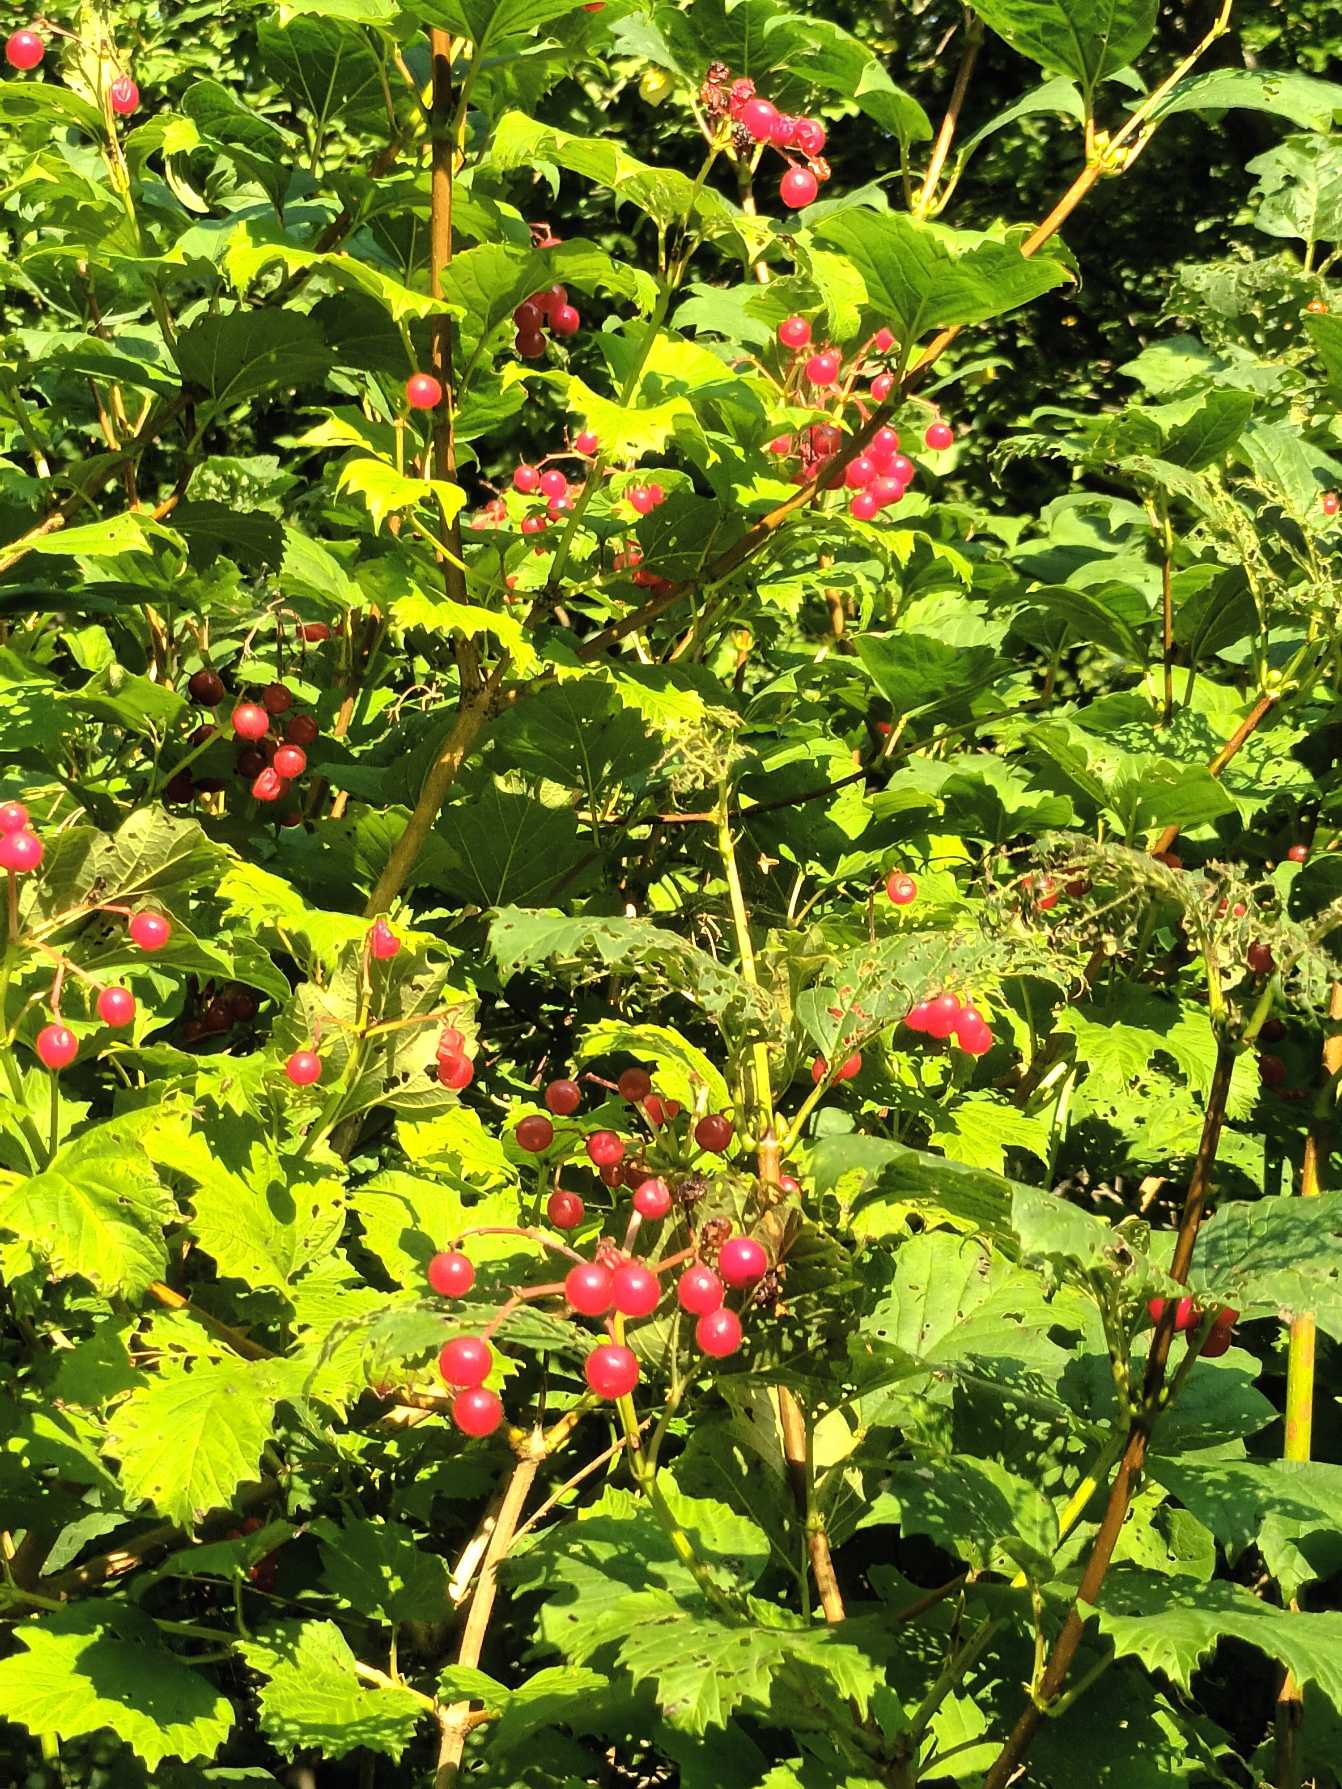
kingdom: Plantae
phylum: Tracheophyta
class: Magnoliopsida
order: Dipsacales
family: Viburnaceae
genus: Viburnum
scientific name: Viburnum opulus
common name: Kvalkved
